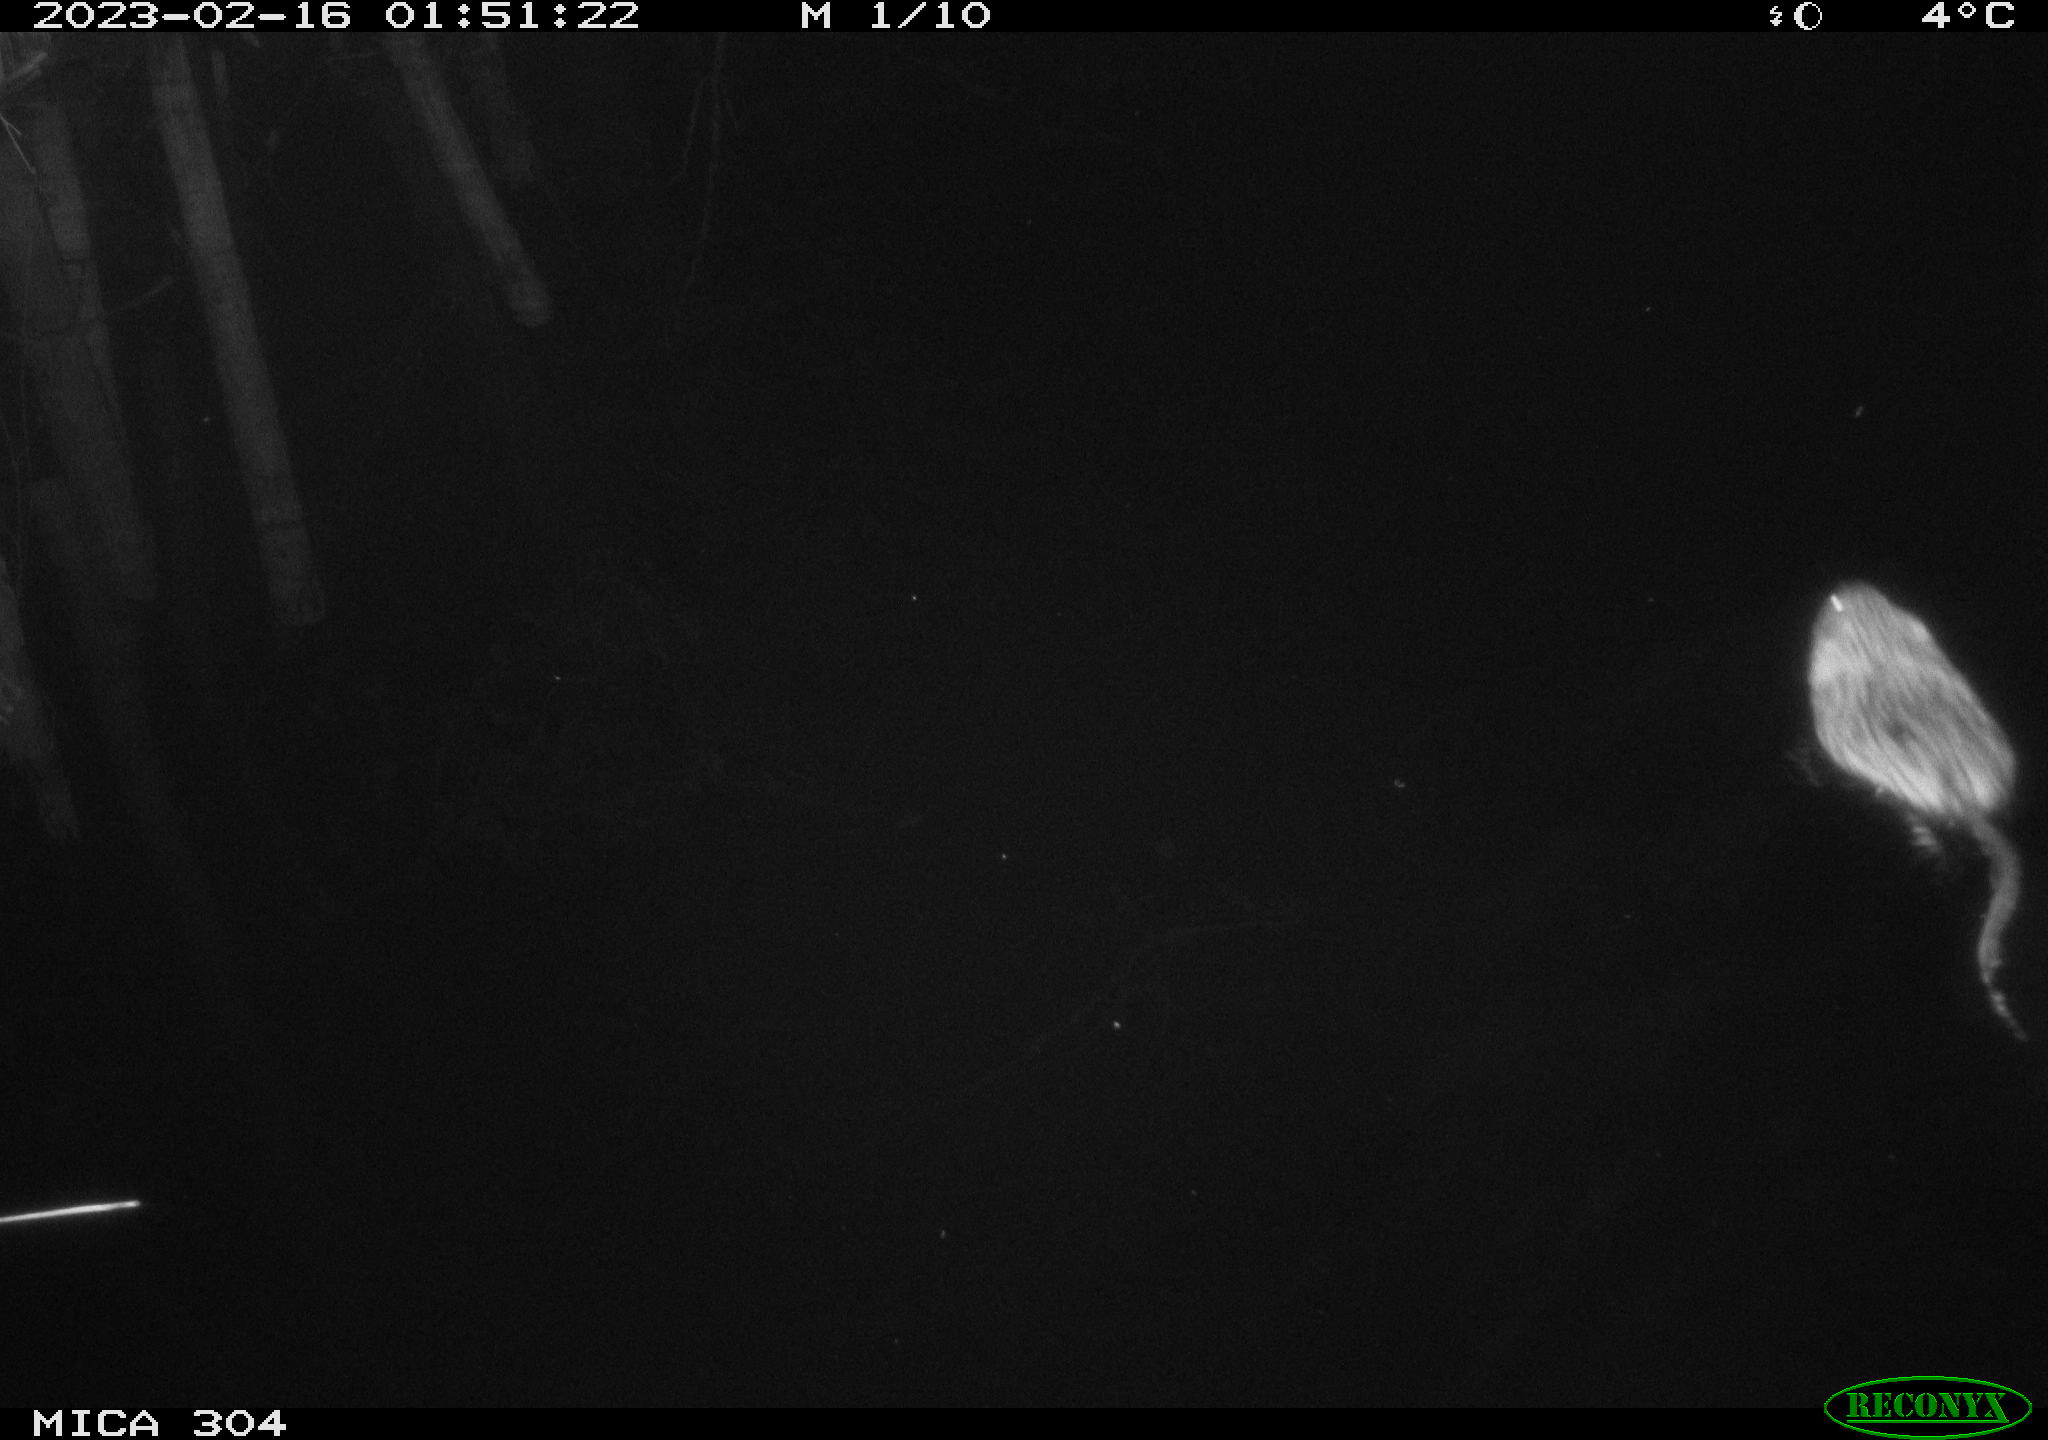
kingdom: Animalia
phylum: Chordata
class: Mammalia
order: Rodentia
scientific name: Rodentia
